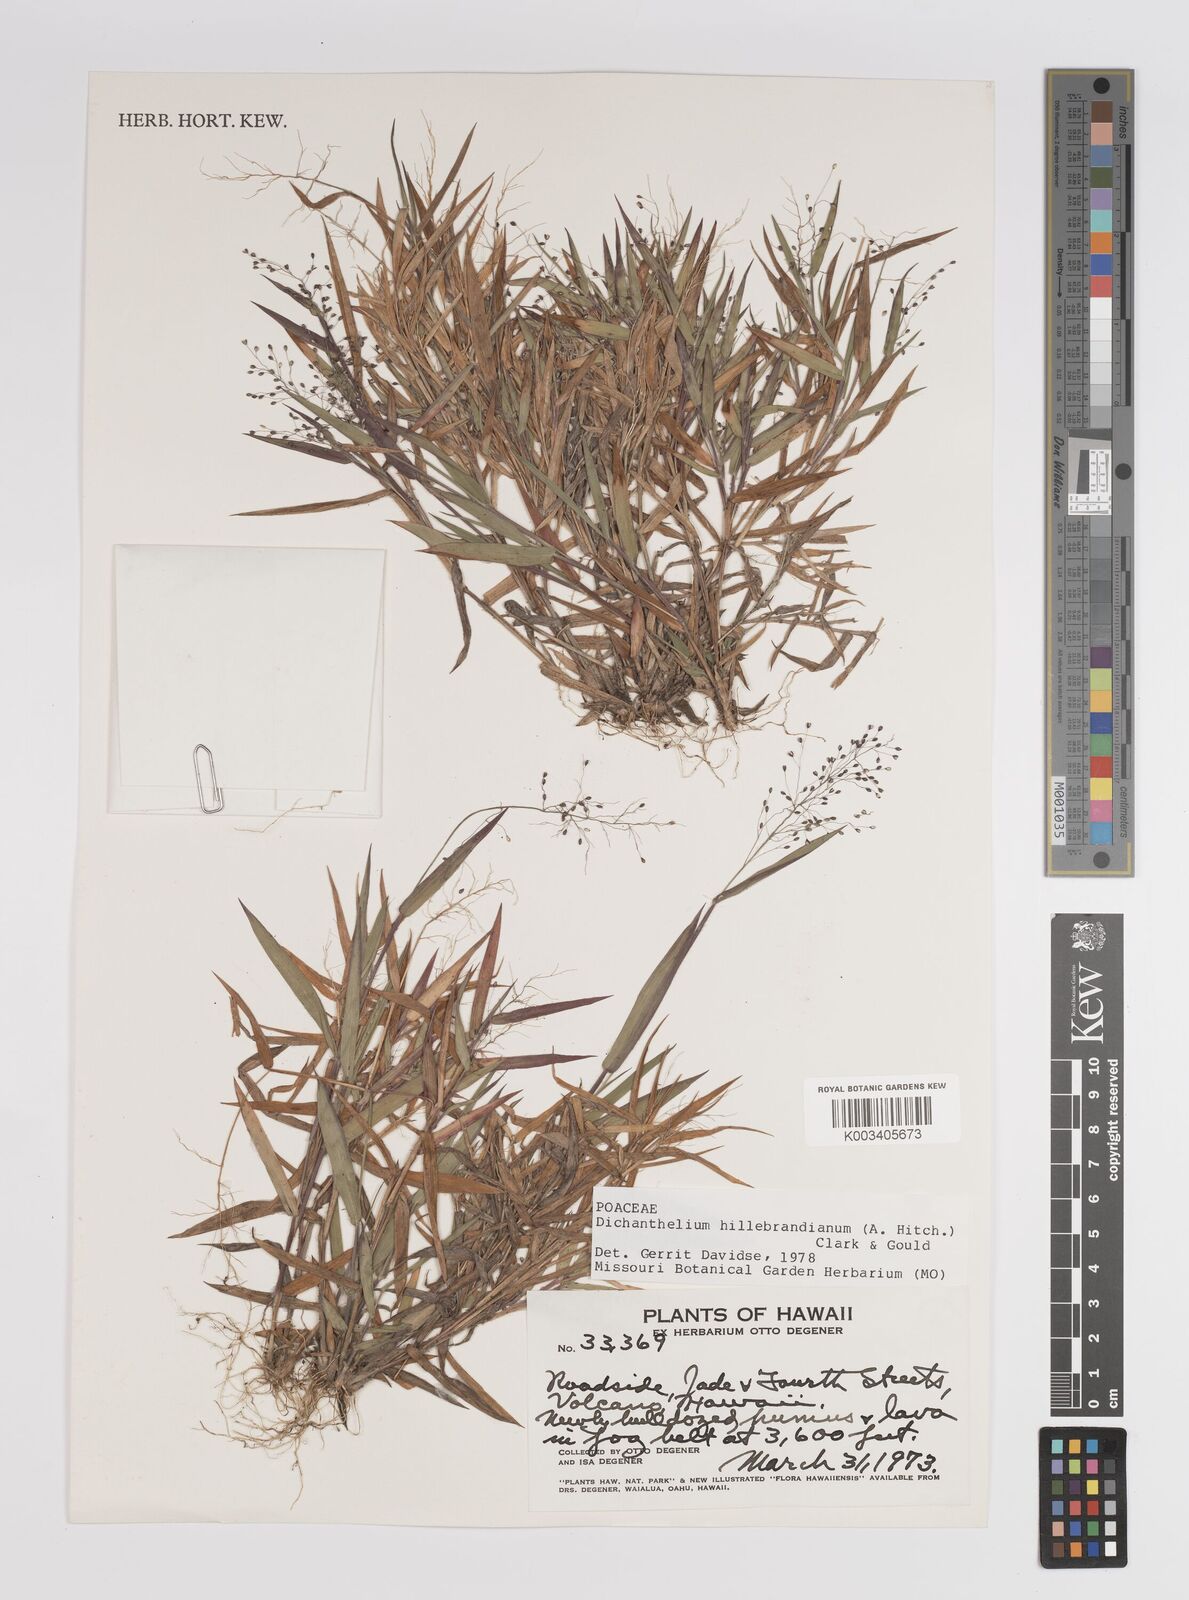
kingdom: Plantae
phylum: Tracheophyta
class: Liliopsida
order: Poales
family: Poaceae
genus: Dichanthelium
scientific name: Dichanthelium hillebrandianum
